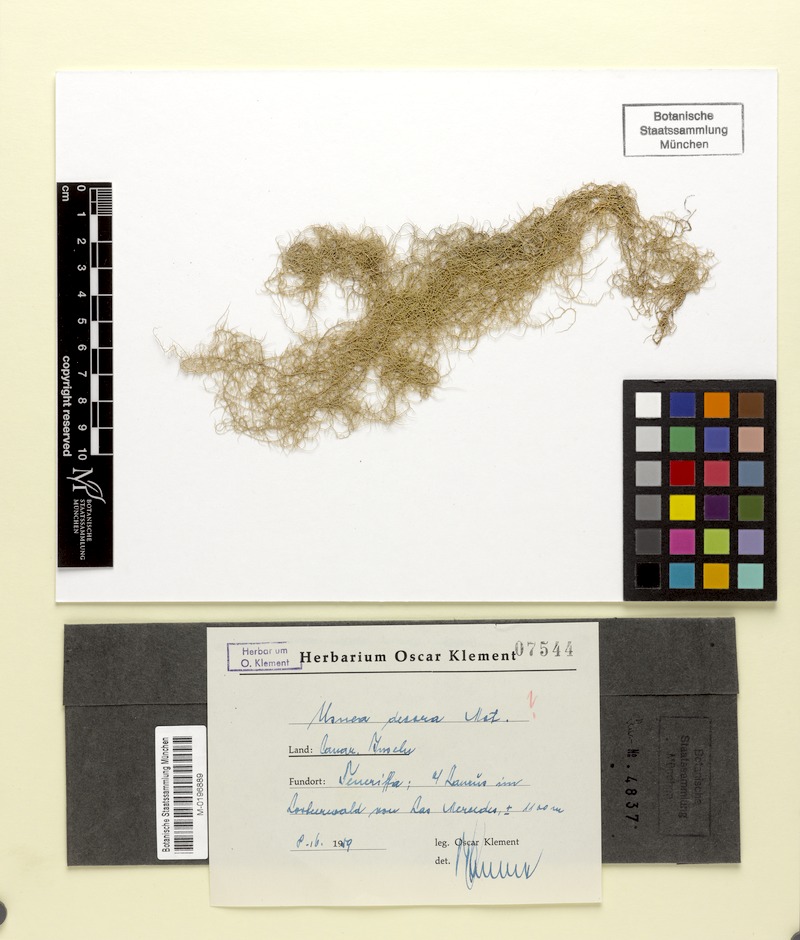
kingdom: Fungi
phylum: Ascomycota
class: Lecanoromycetes
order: Lecanorales
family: Parmeliaceae
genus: Usnea
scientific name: Usnea plicata
